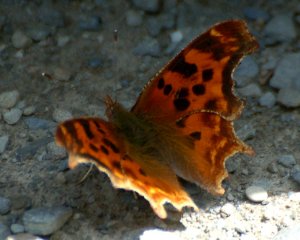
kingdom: Animalia
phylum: Arthropoda
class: Insecta
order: Lepidoptera
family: Nymphalidae
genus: Polygonia
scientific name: Polygonia satyrus
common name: Satyr Comma
